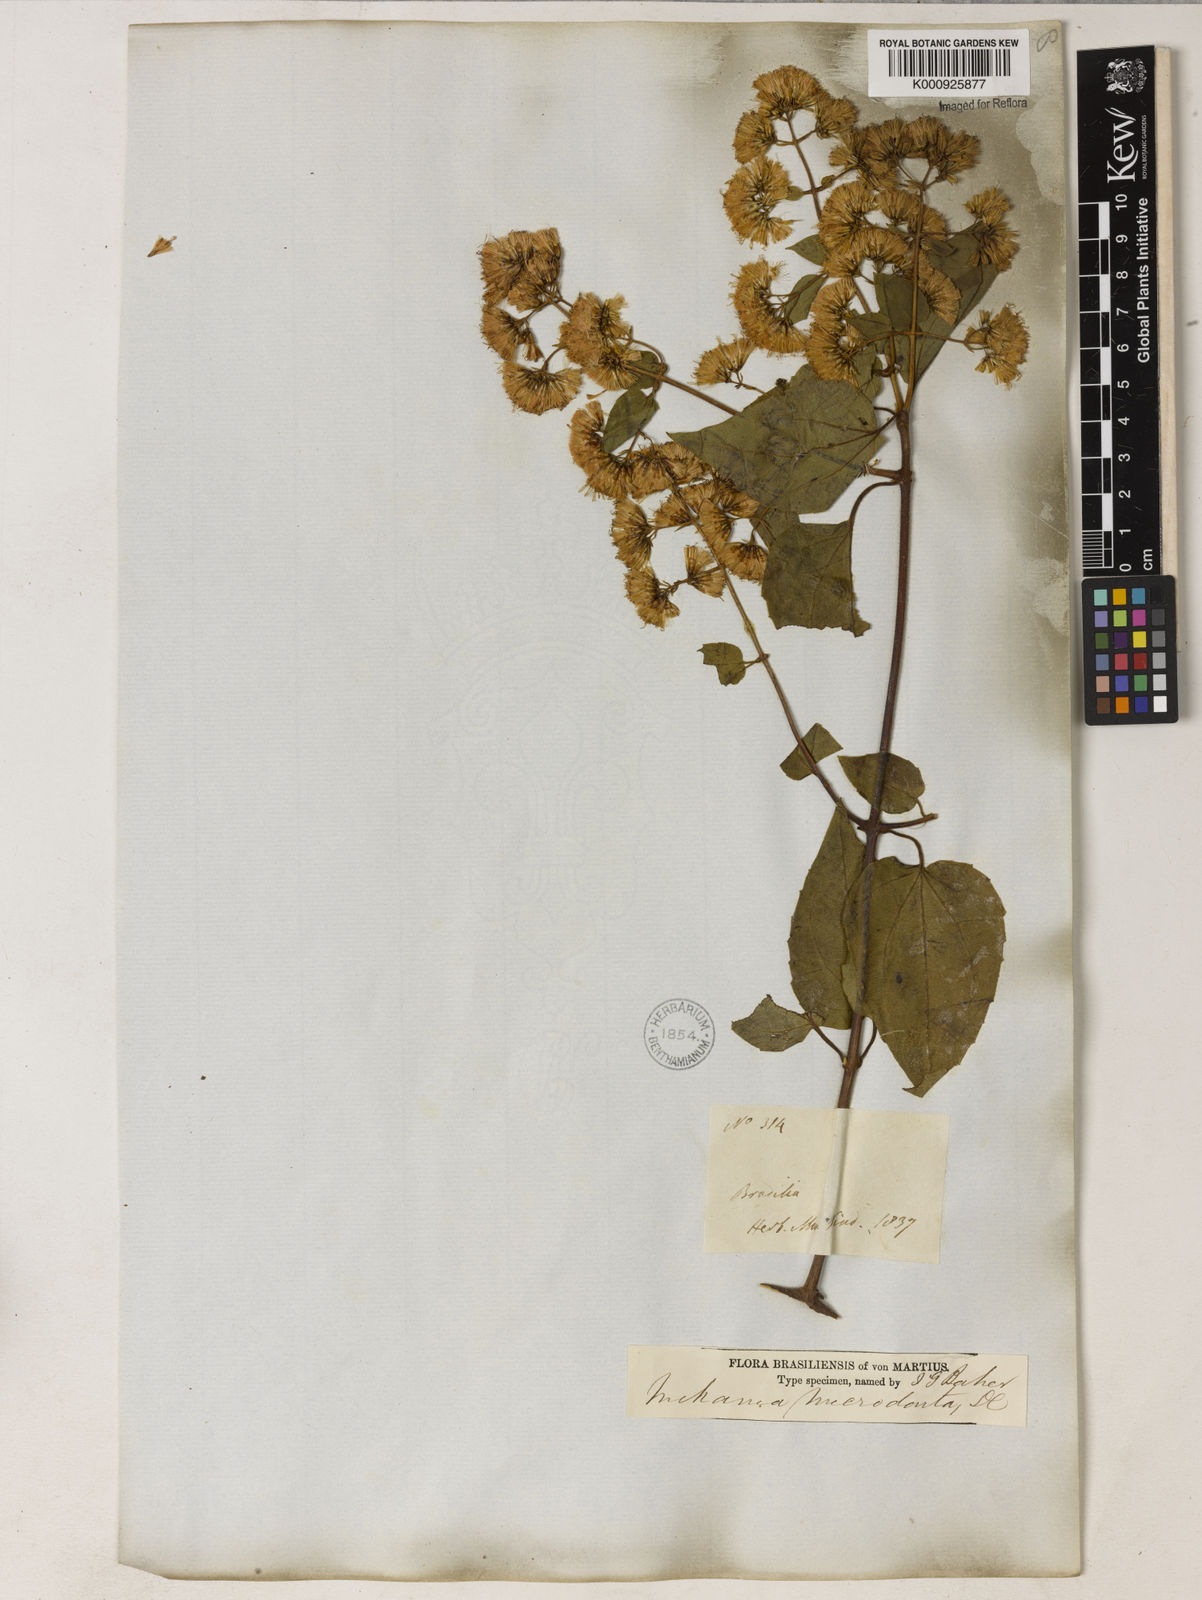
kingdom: Plantae
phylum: Tracheophyta
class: Magnoliopsida
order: Asterales
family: Asteraceae
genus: Mikania
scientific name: Mikania microdonta
